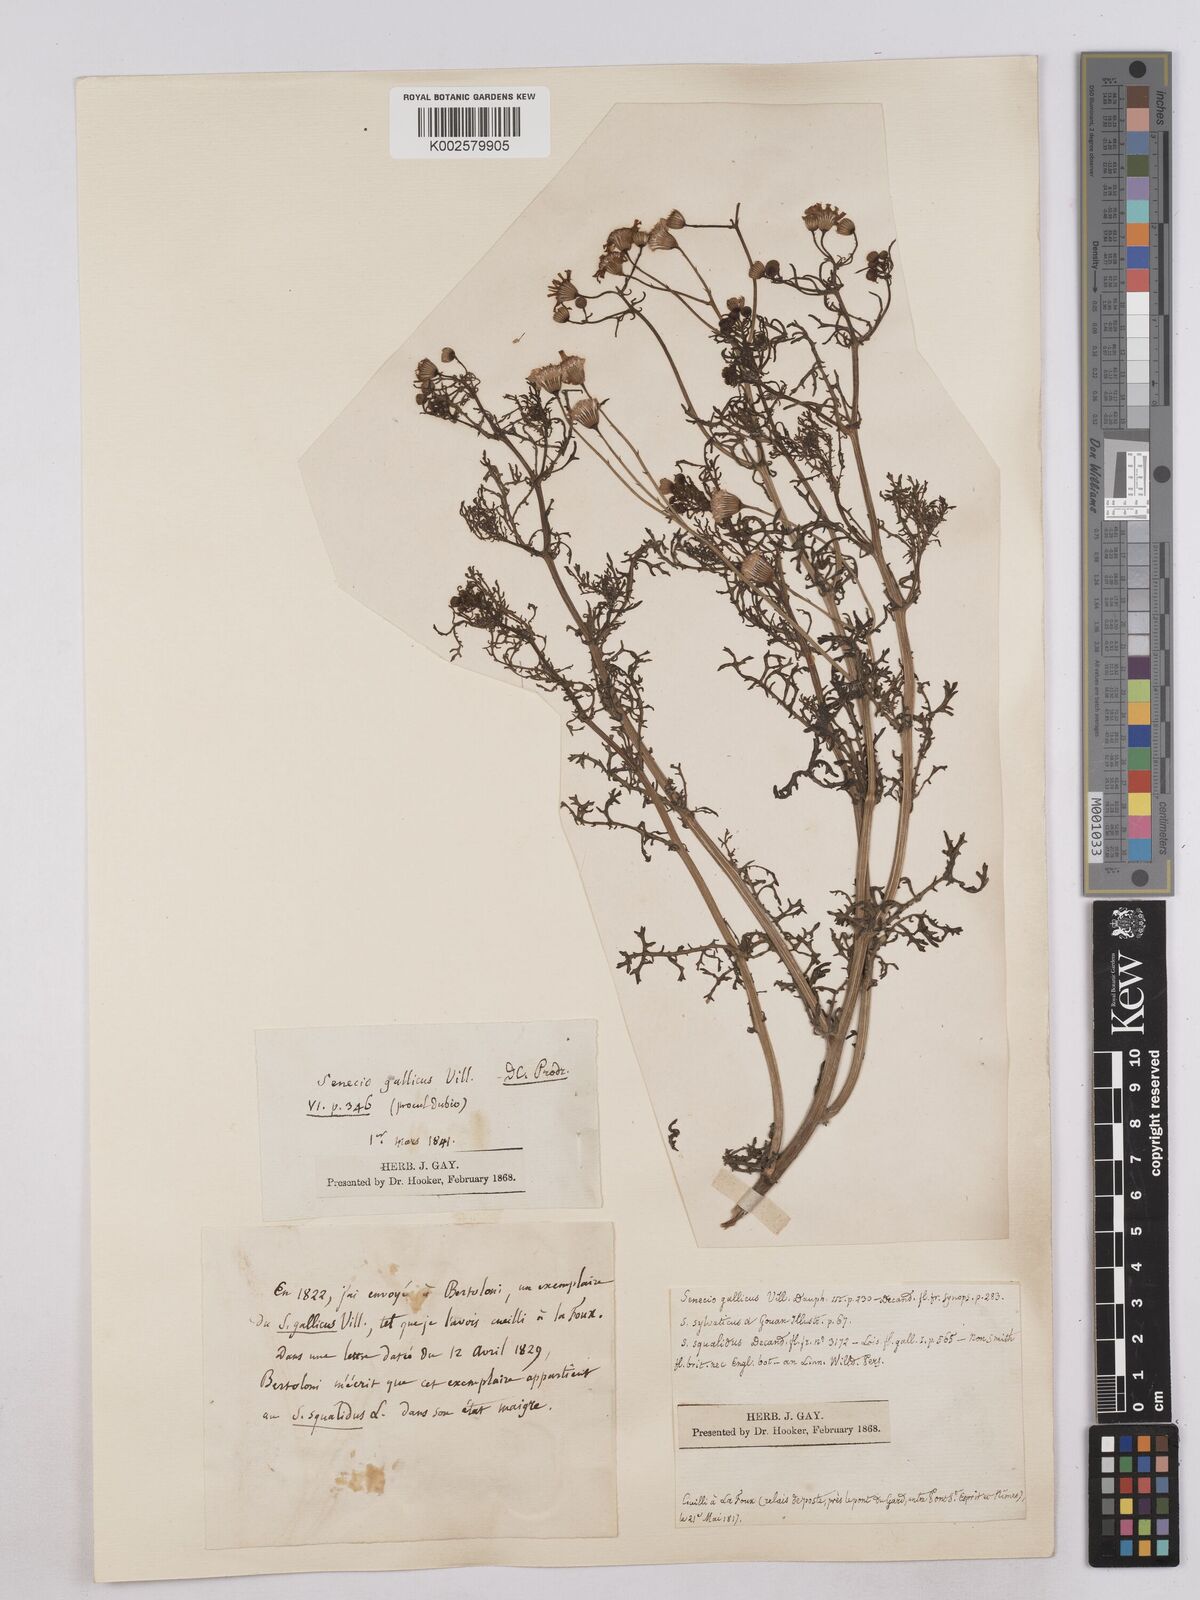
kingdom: Plantae
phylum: Tracheophyta
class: Magnoliopsida
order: Asterales
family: Asteraceae
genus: Senecio
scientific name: Senecio gallicus
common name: French groundsel
